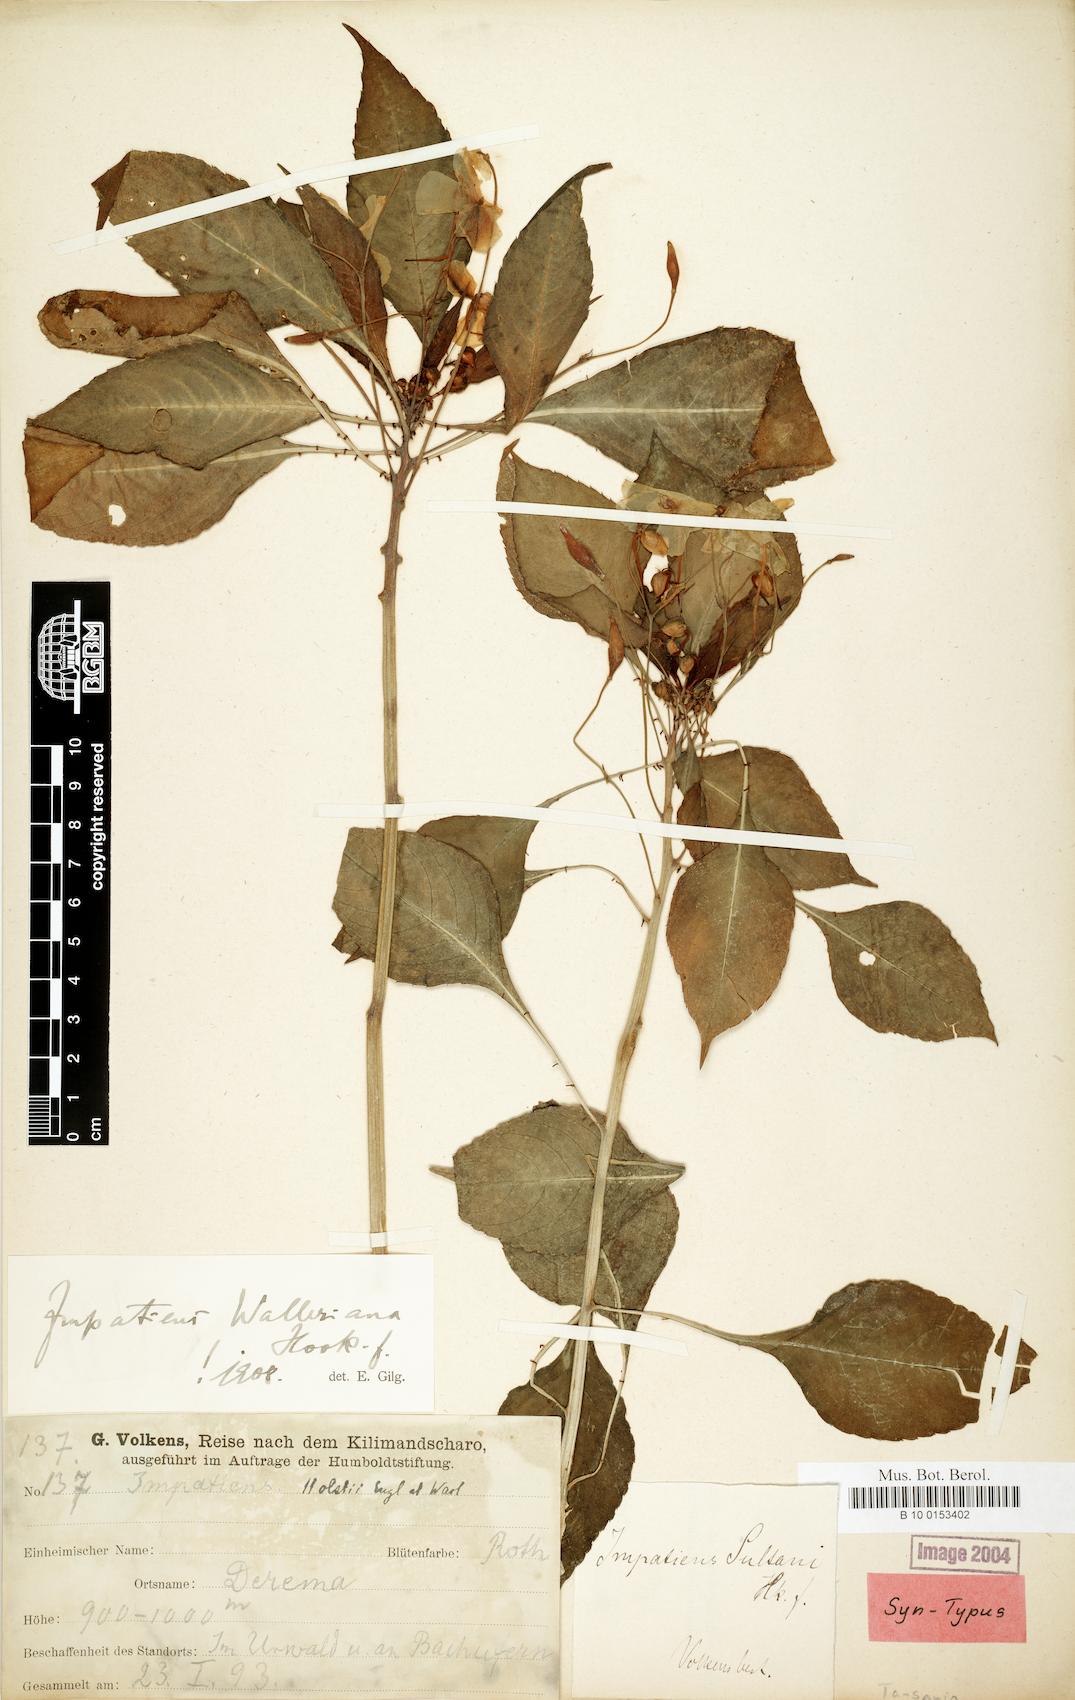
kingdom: Plantae
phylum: Tracheophyta
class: Magnoliopsida
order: Ericales
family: Balsaminaceae
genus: Impatiens
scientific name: Impatiens walleriana
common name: Buzzy lizzy
